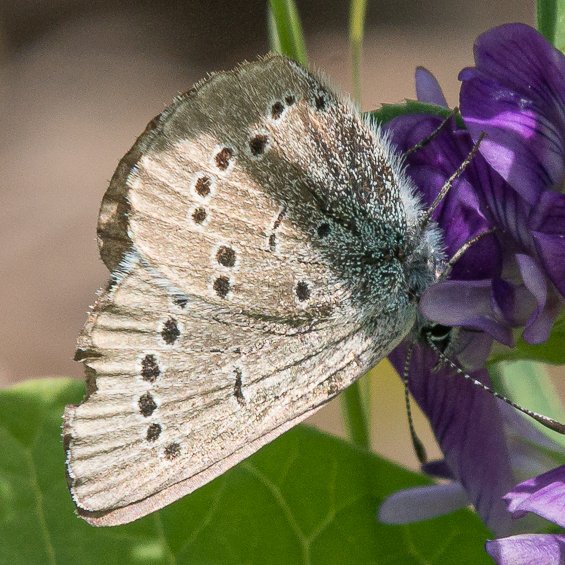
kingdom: Animalia
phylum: Arthropoda
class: Insecta
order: Lepidoptera
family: Lycaenidae
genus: Glaucopsyche
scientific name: Glaucopsyche lygdamus
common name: Silvery Blue
